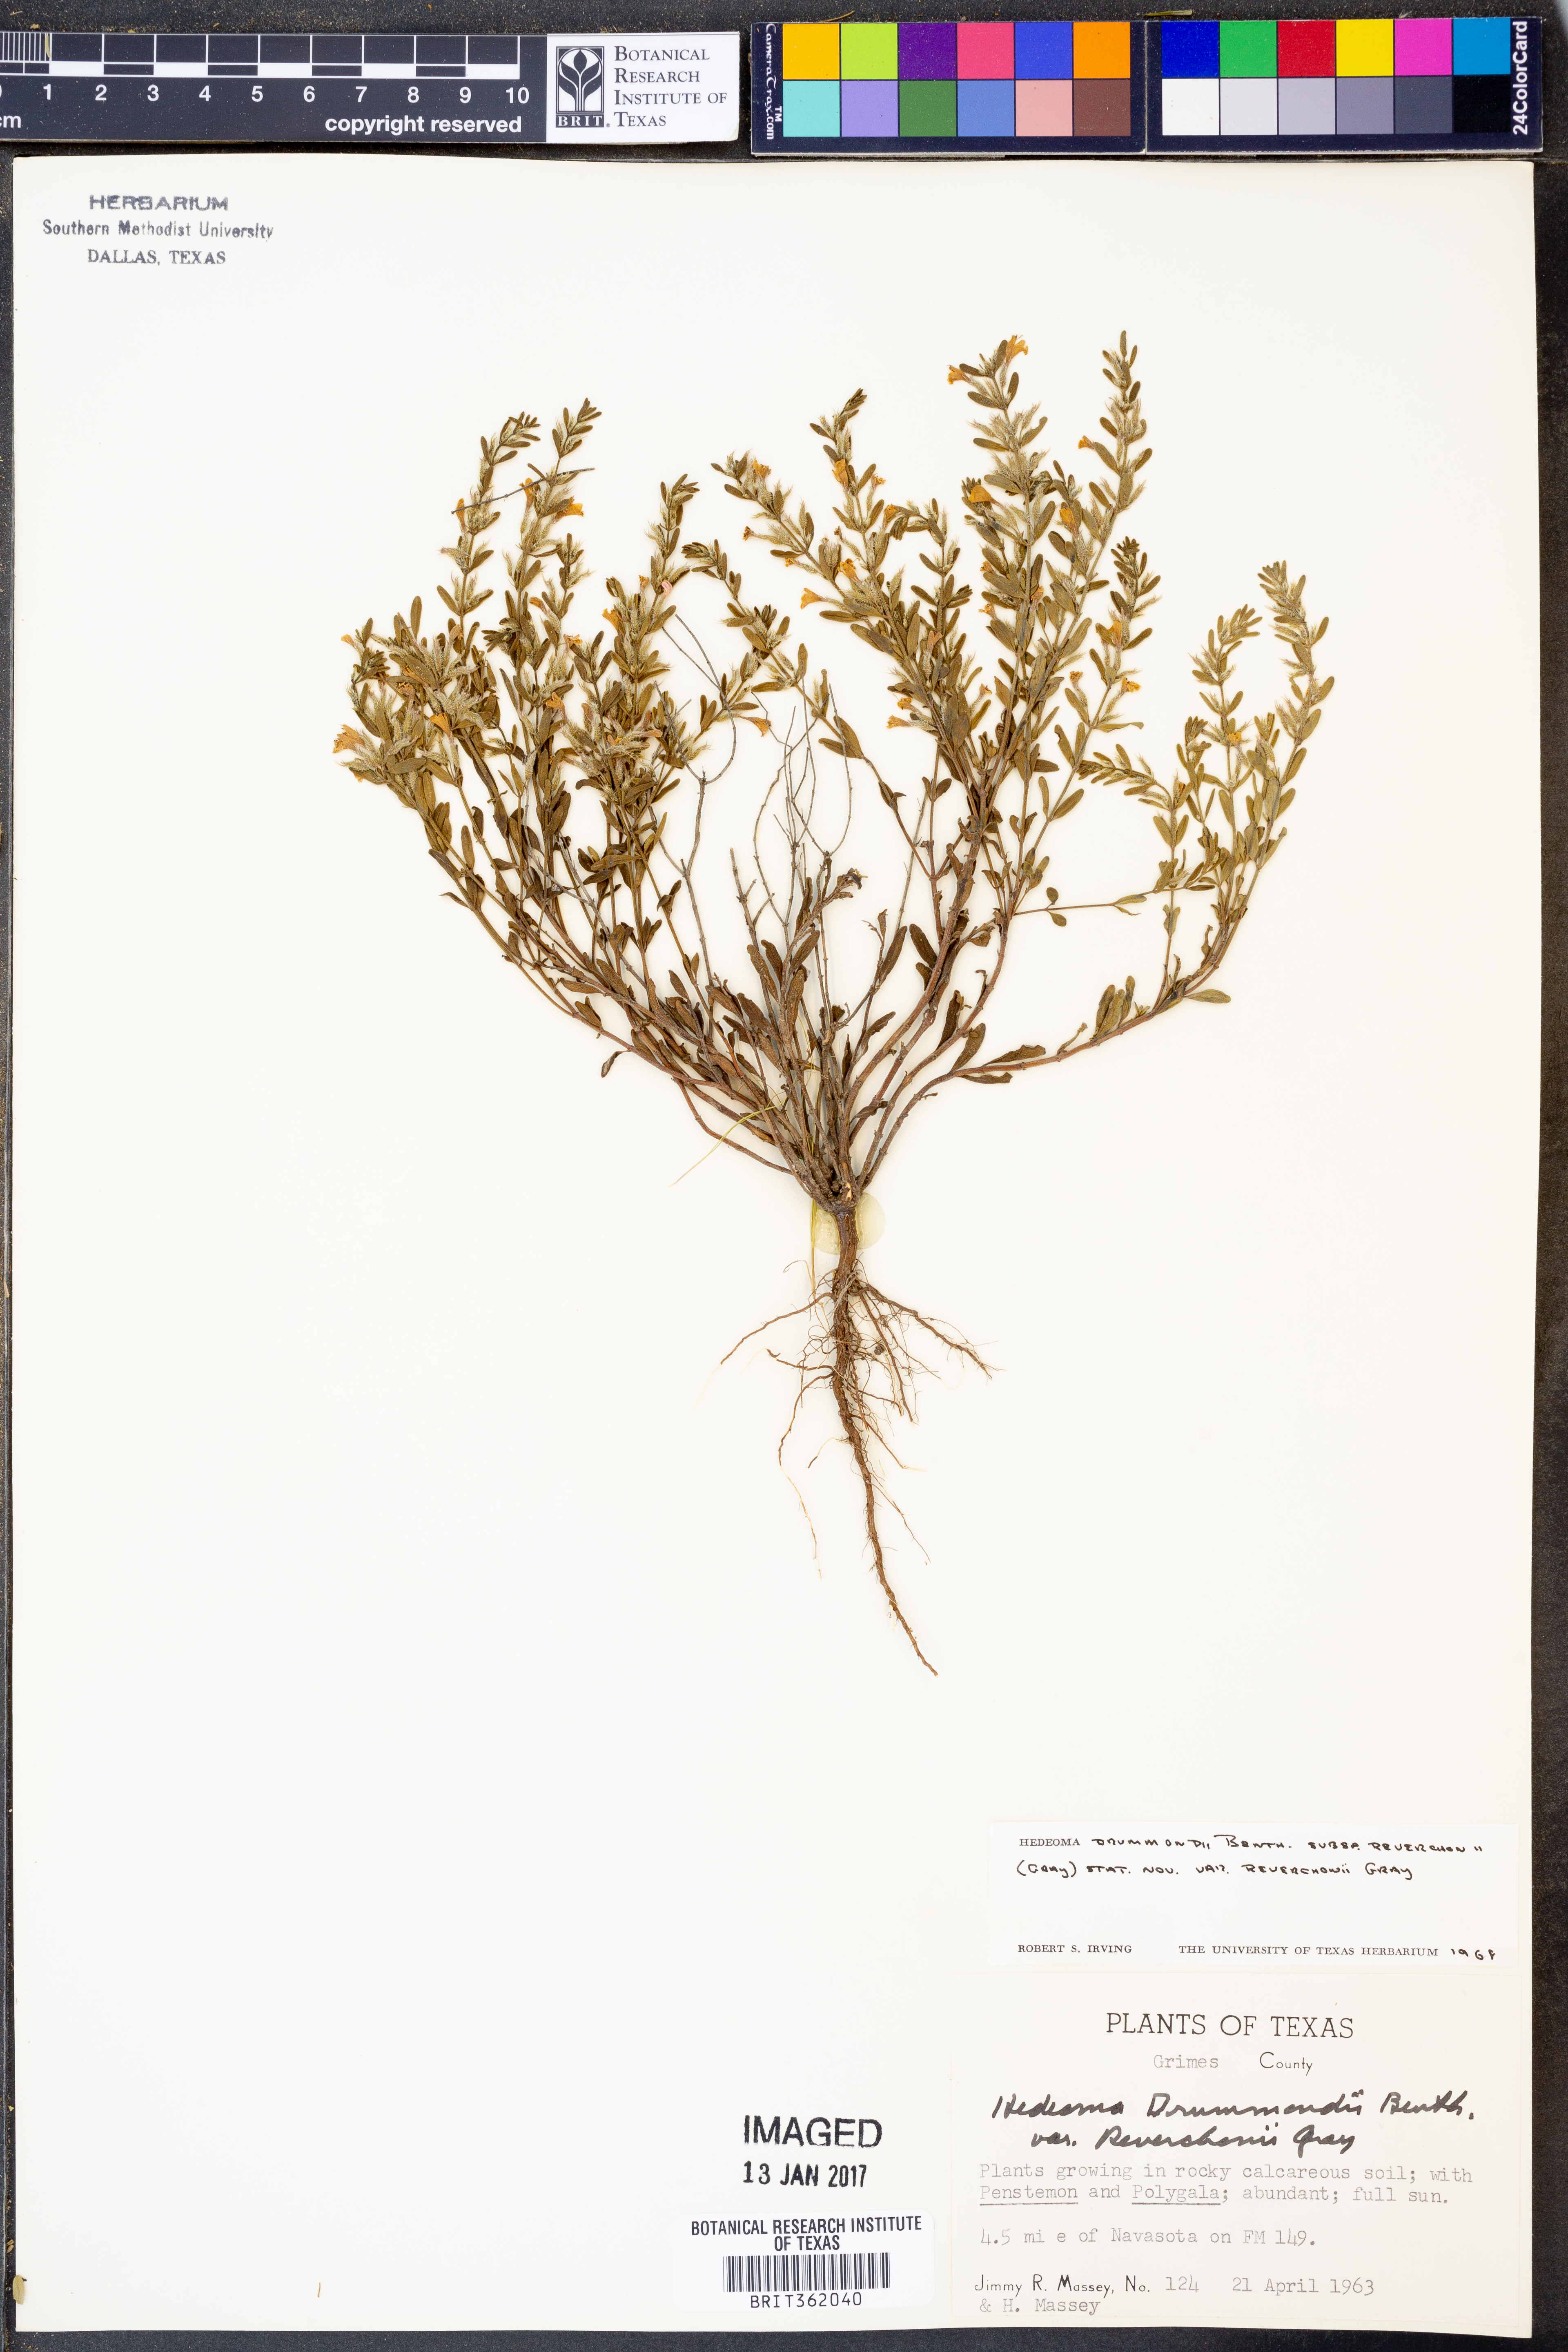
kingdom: Plantae
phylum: Tracheophyta
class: Magnoliopsida
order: Lamiales
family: Lamiaceae
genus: Hedeoma
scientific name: Hedeoma reverchonii
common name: Reverchon's false penny-royal
